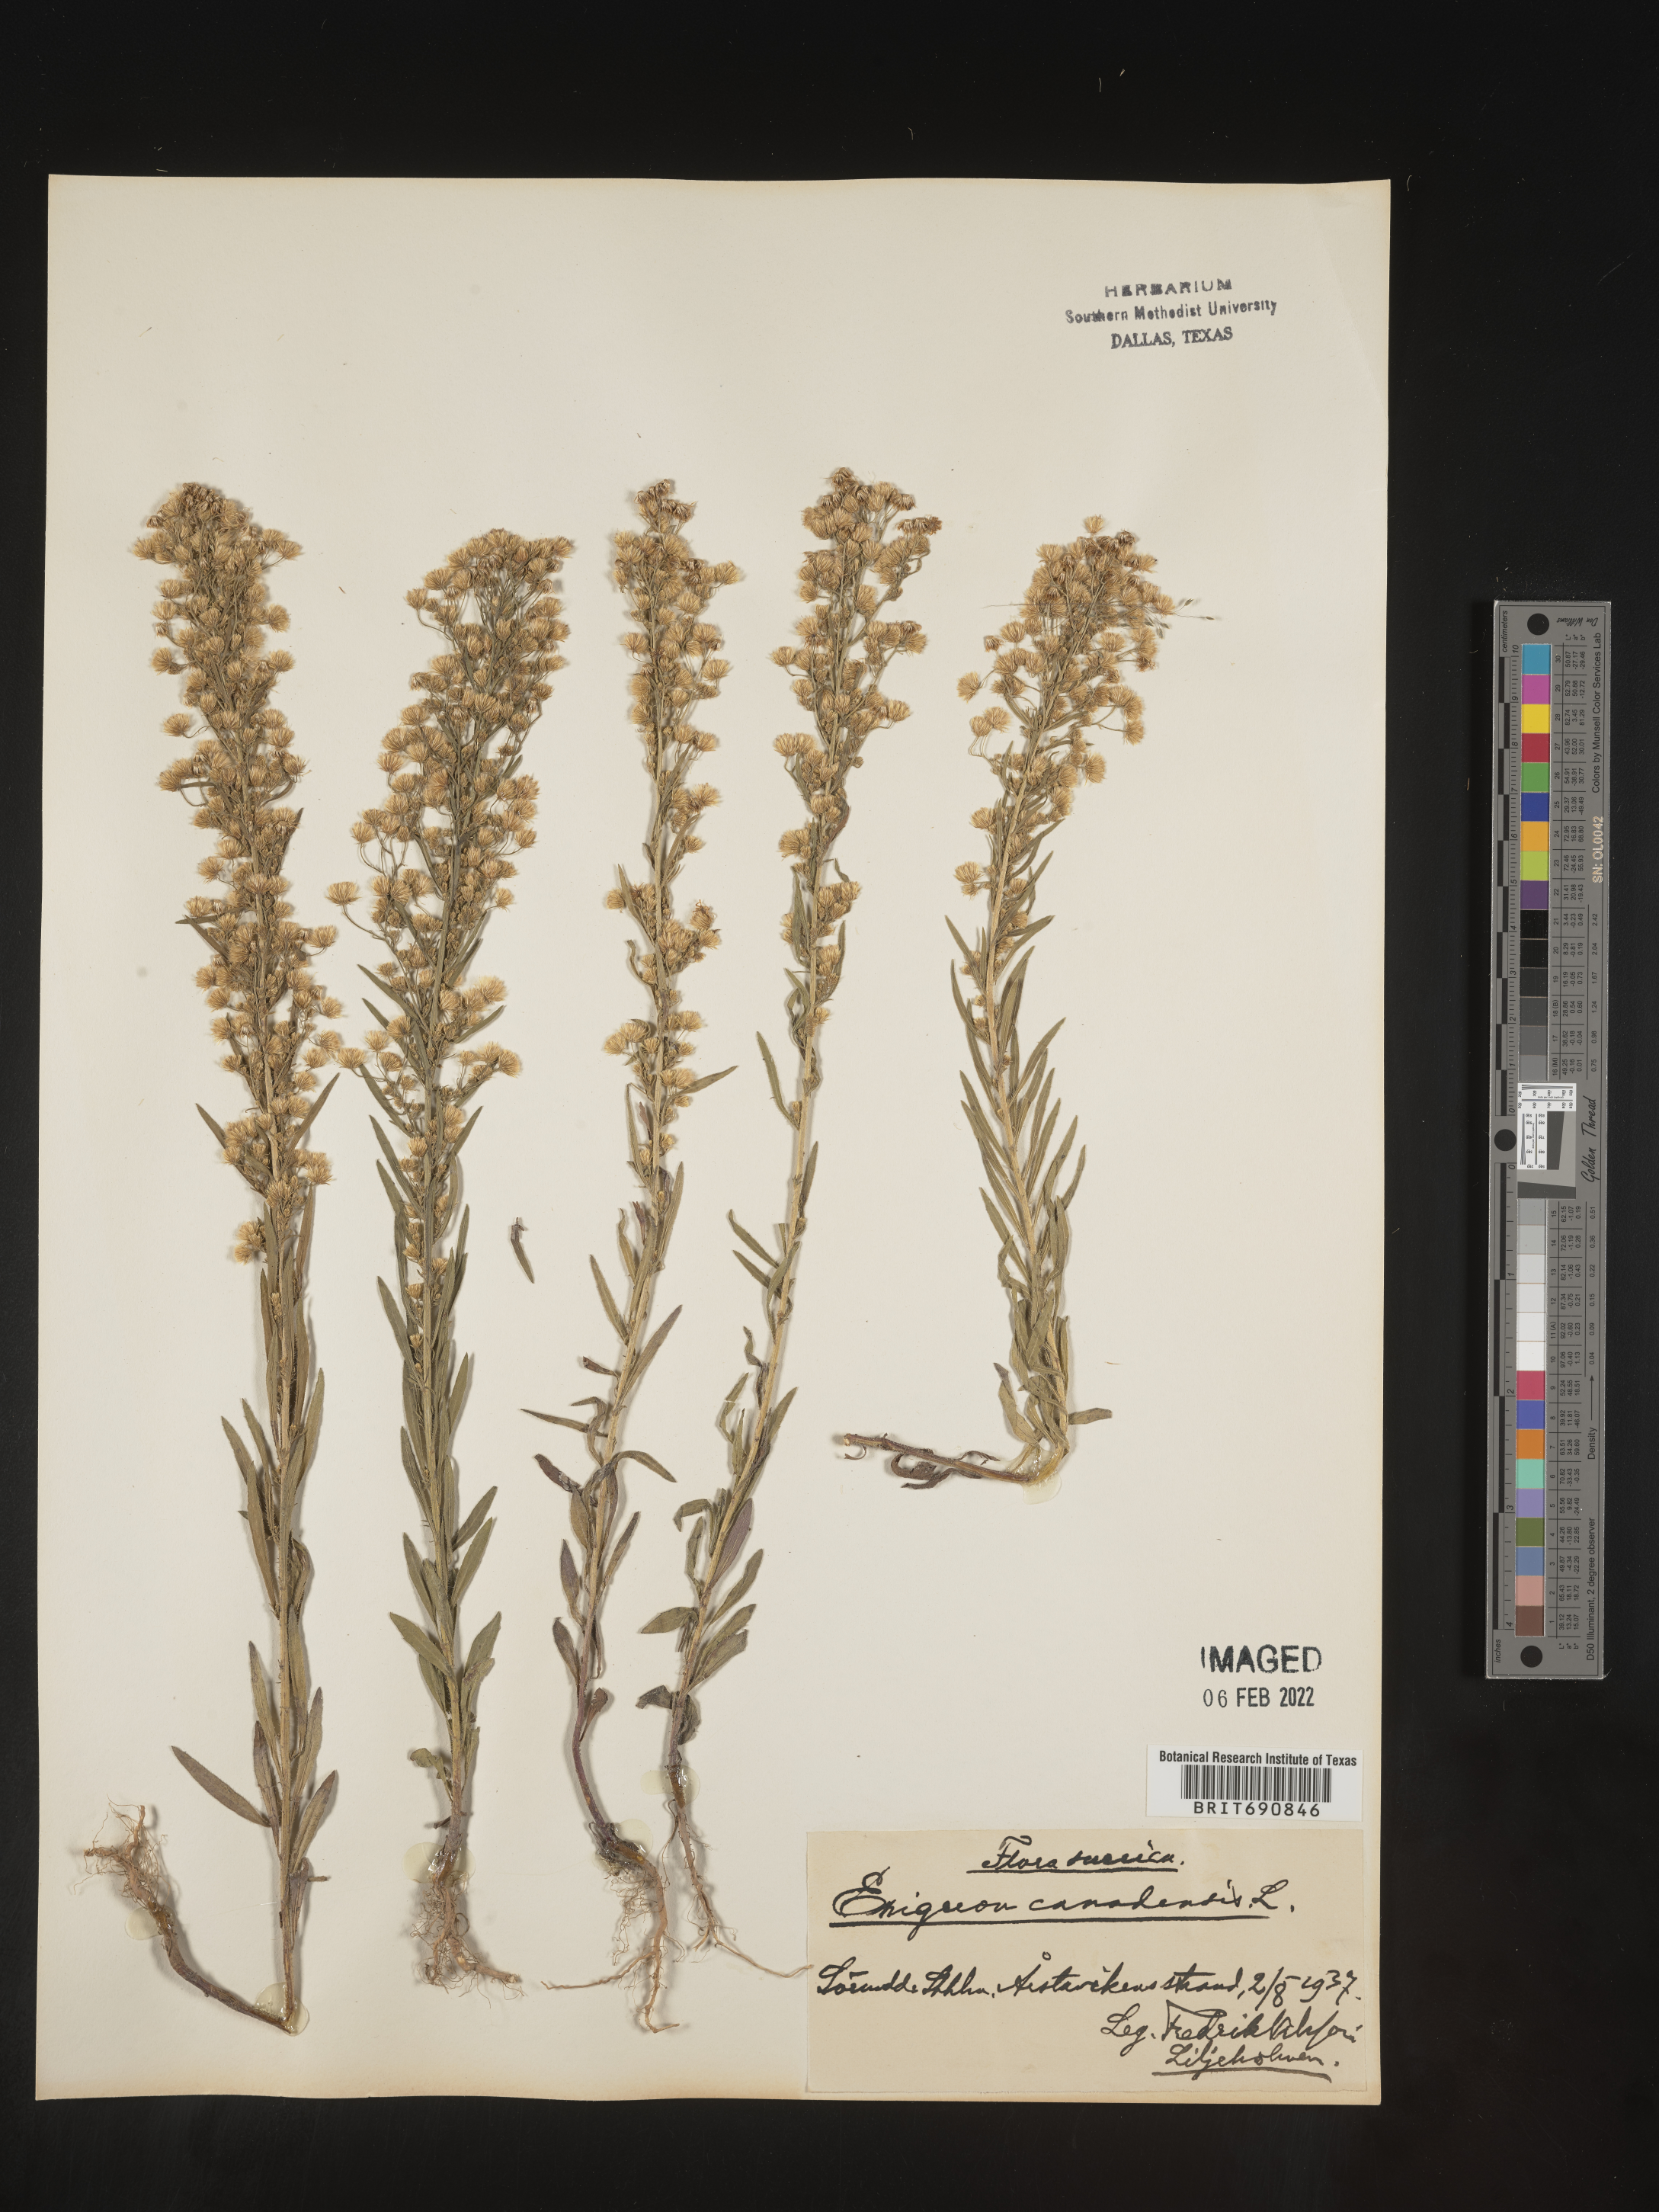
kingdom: Plantae
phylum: Tracheophyta
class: Magnoliopsida
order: Asterales
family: Asteraceae
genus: Conyza
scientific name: Conyza
